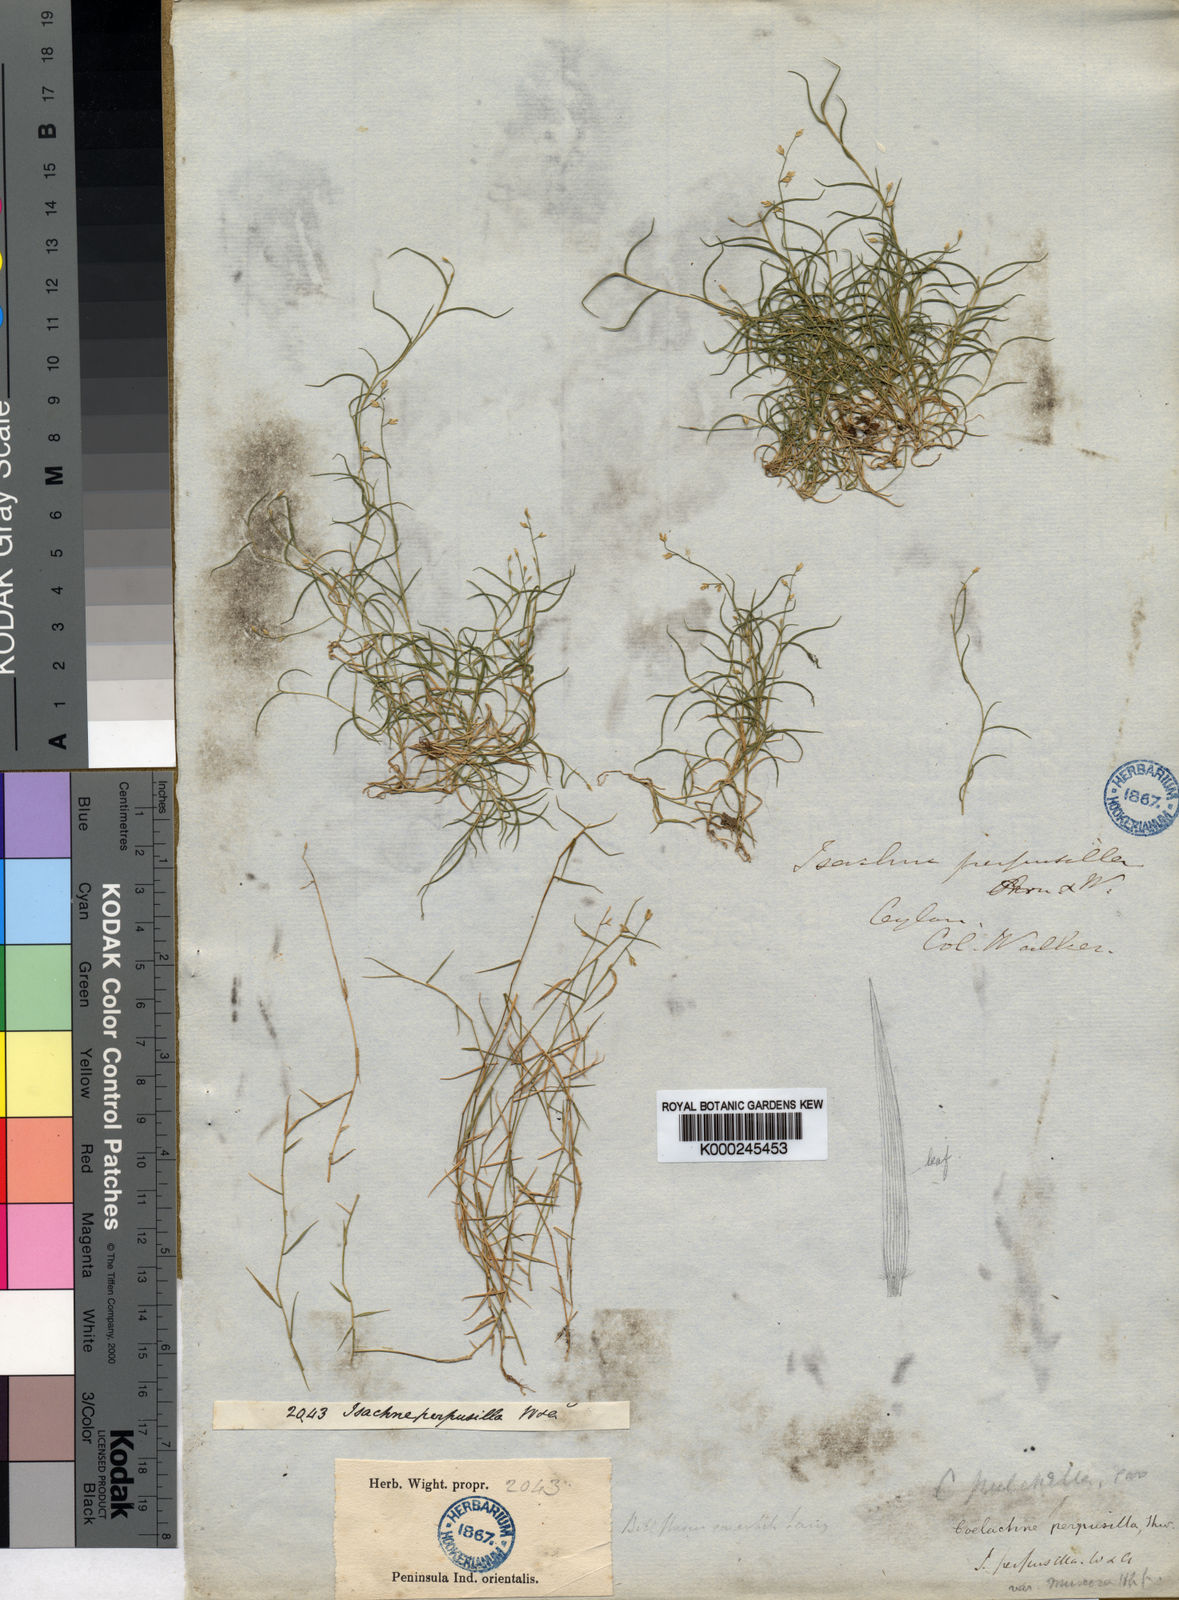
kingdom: Plantae
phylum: Tracheophyta
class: Liliopsida
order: Poales
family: Poaceae
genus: Coelachne
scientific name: Coelachne perpusilla
